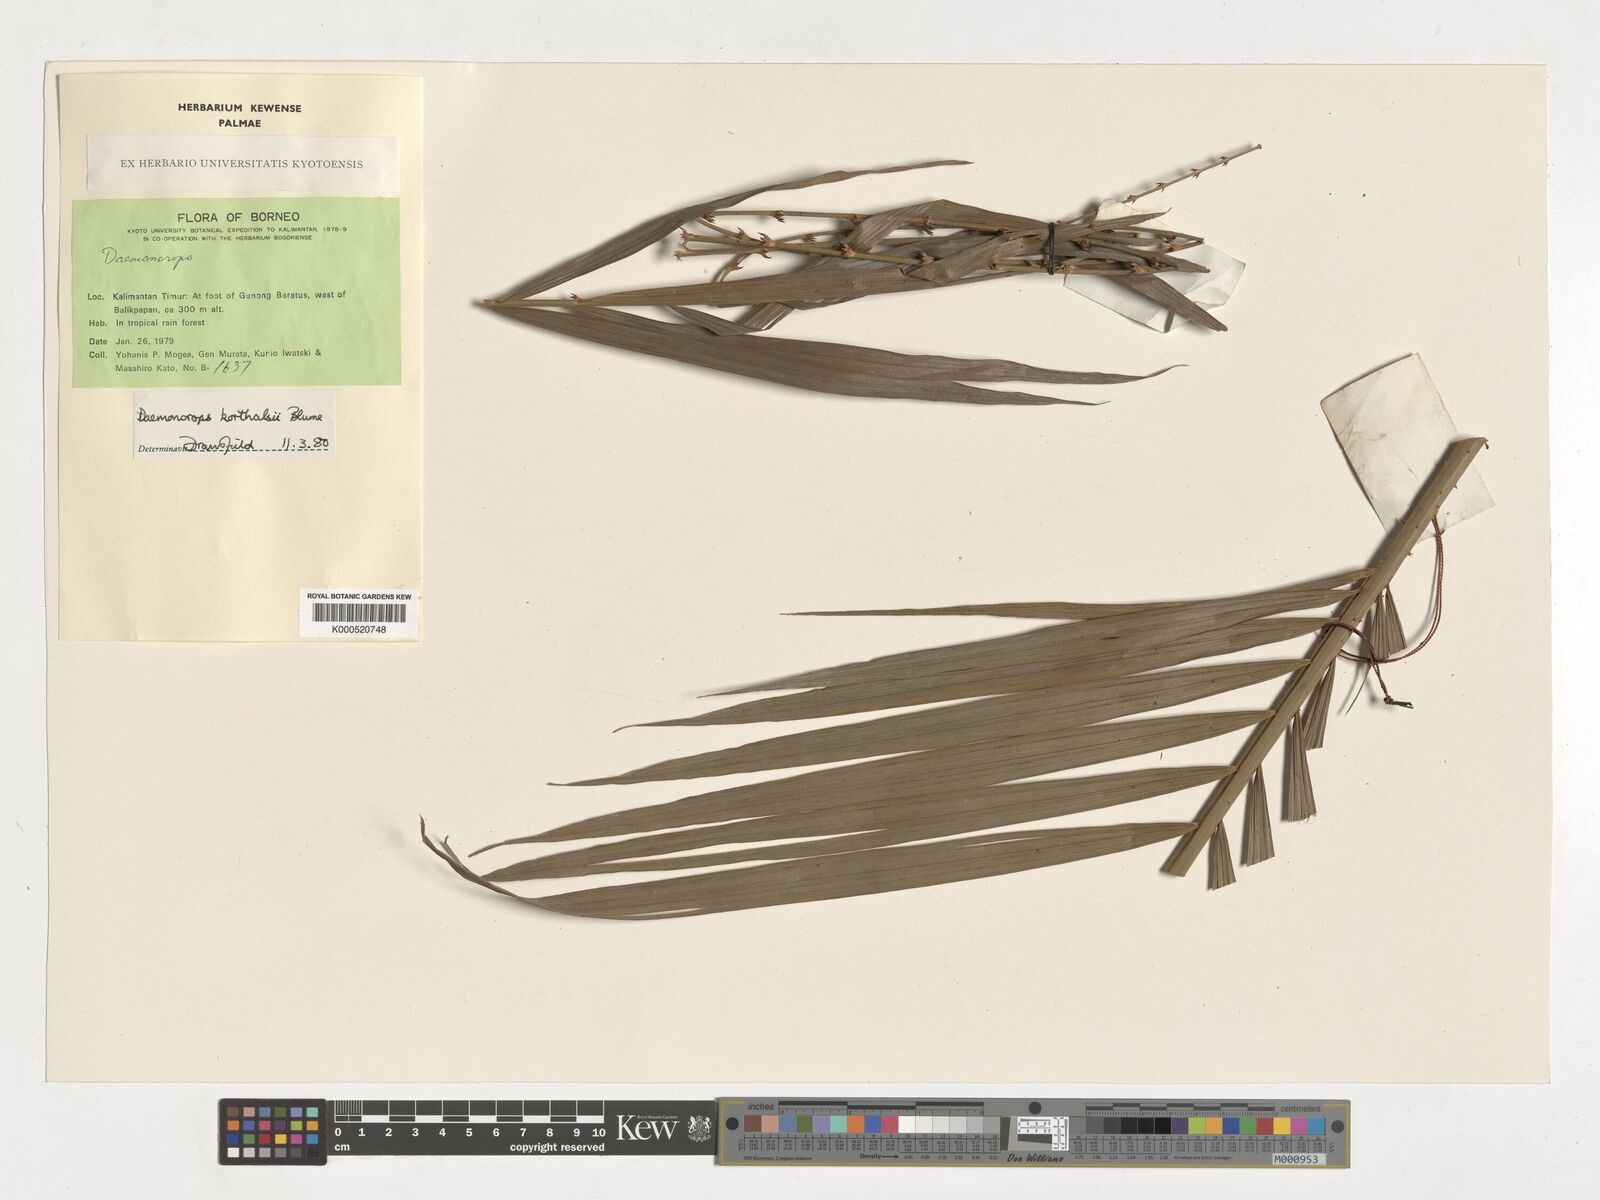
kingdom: Plantae
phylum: Tracheophyta
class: Liliopsida
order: Arecales
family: Arecaceae
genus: Calamus
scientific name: Calamus hirsutus
